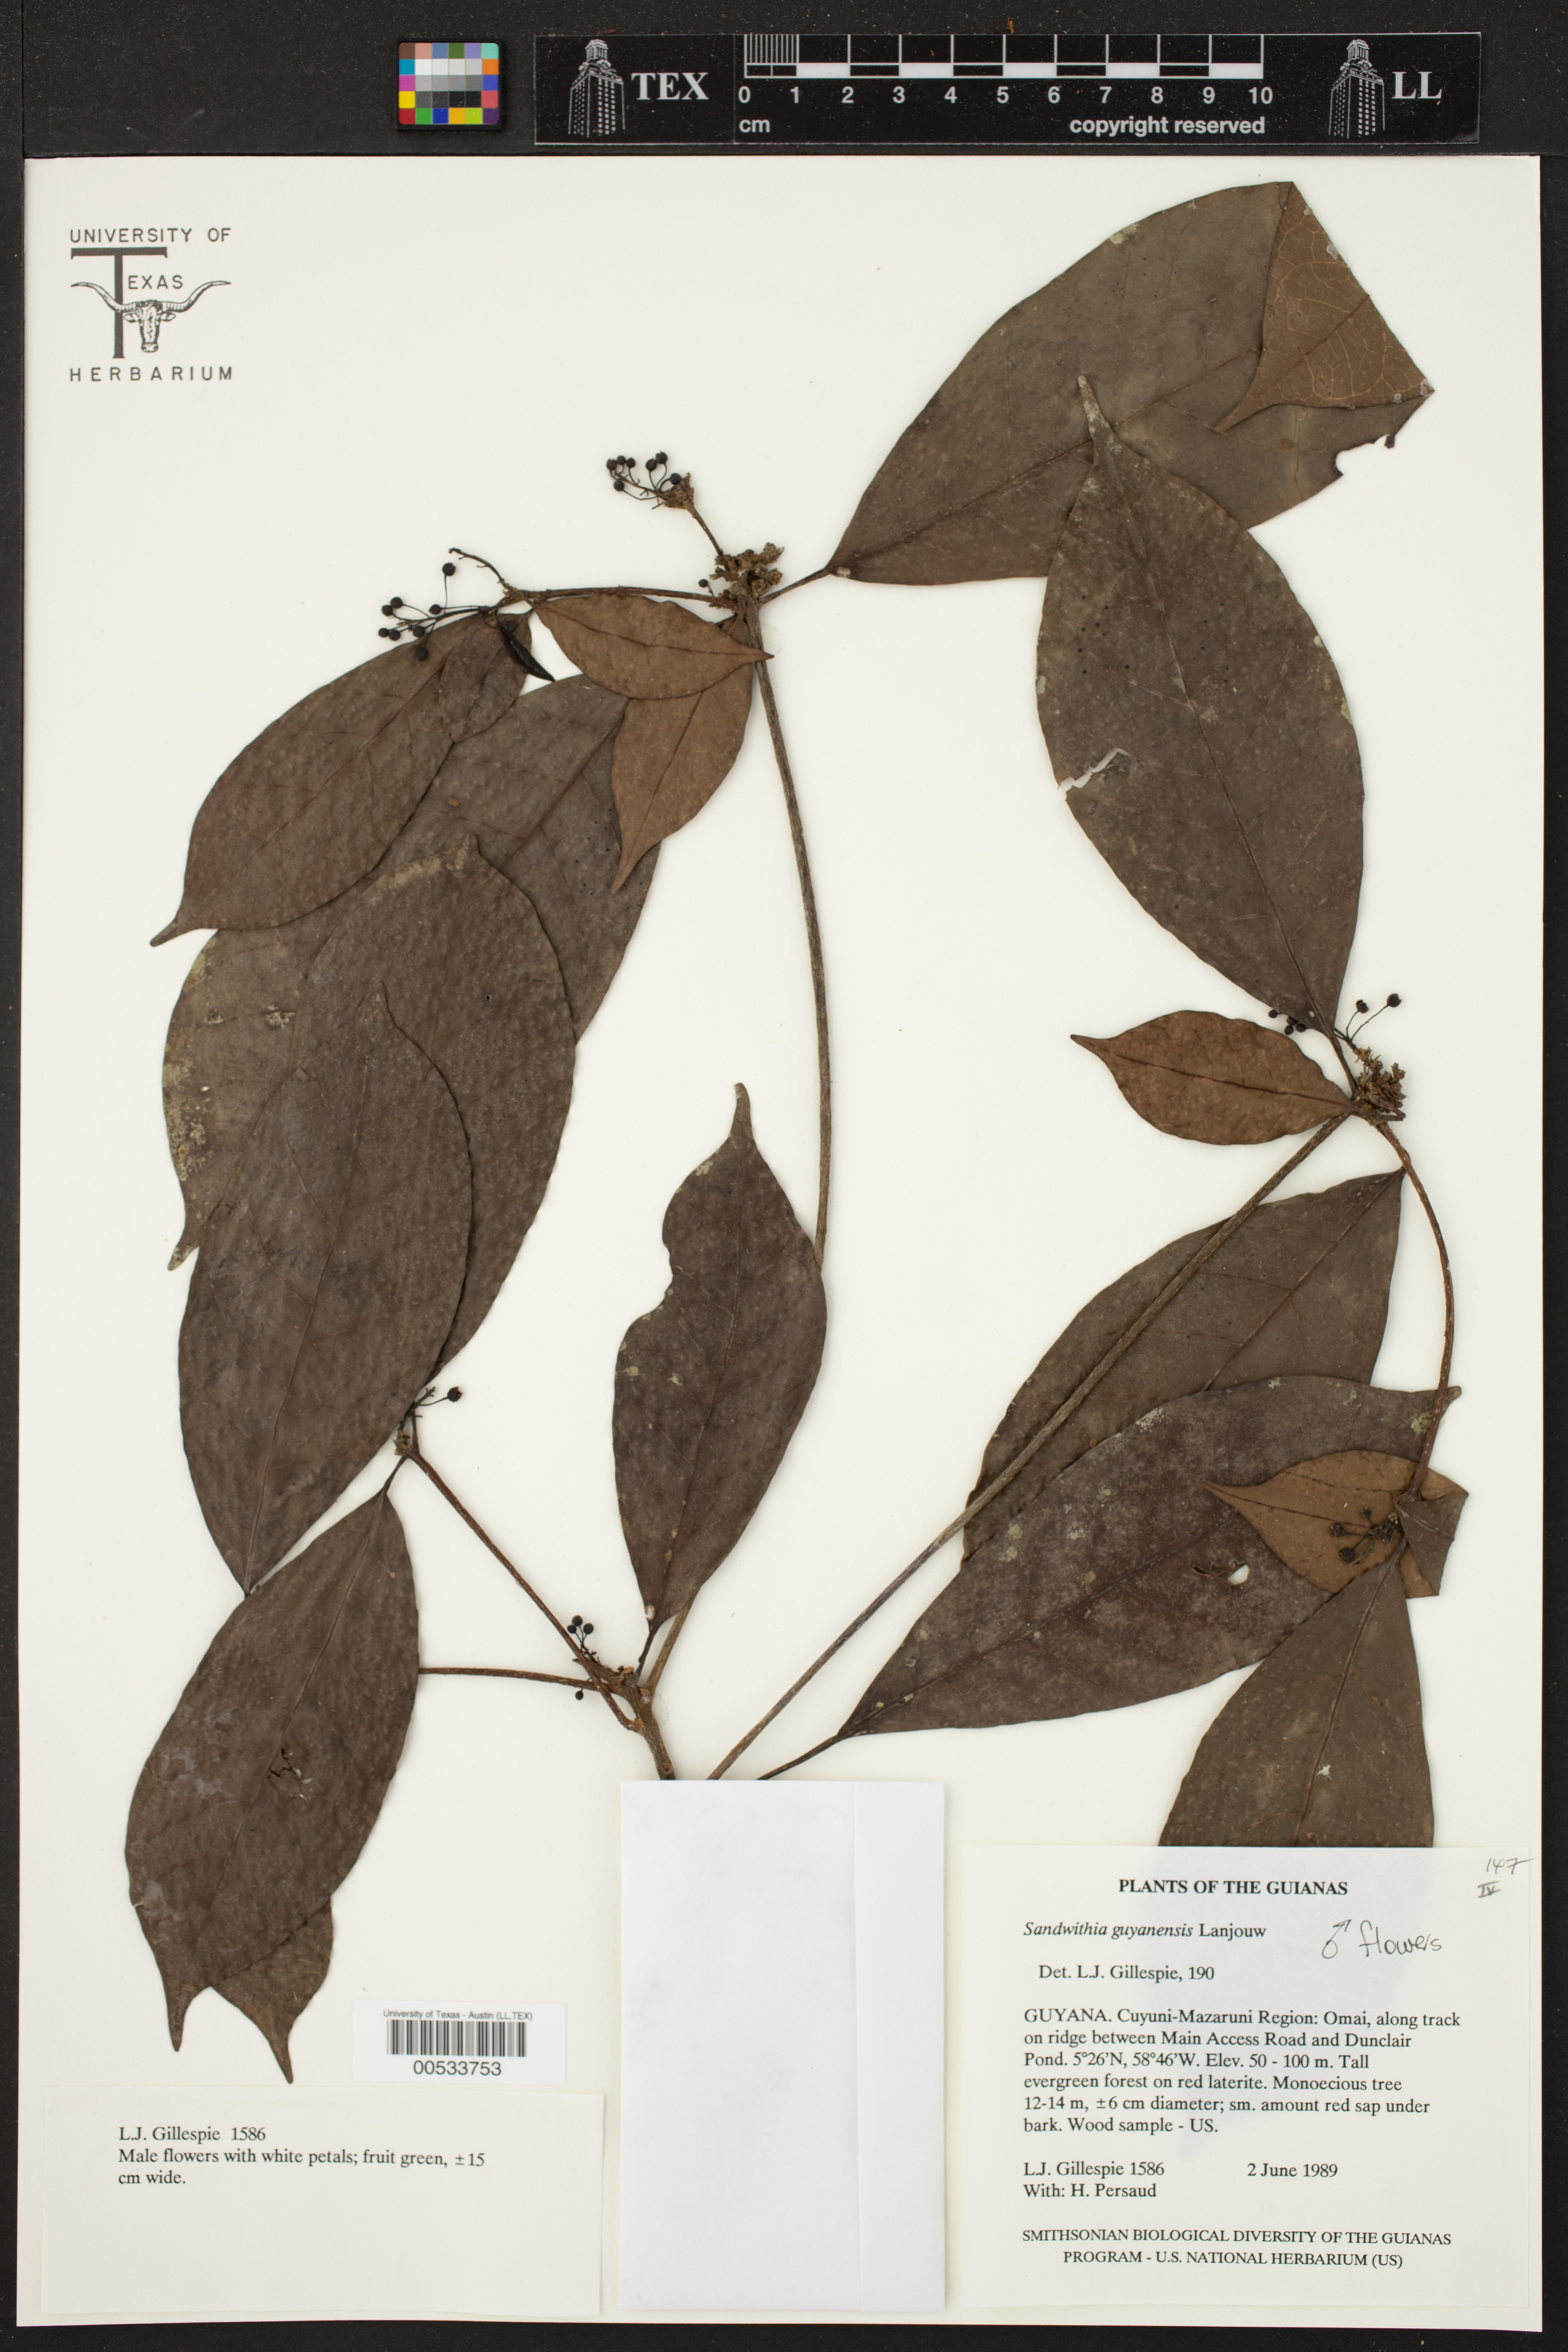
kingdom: Plantae
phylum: Tracheophyta
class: Magnoliopsida
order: Malpighiales
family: Euphorbiaceae
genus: Sandwithia
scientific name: Sandwithia guyanensis
